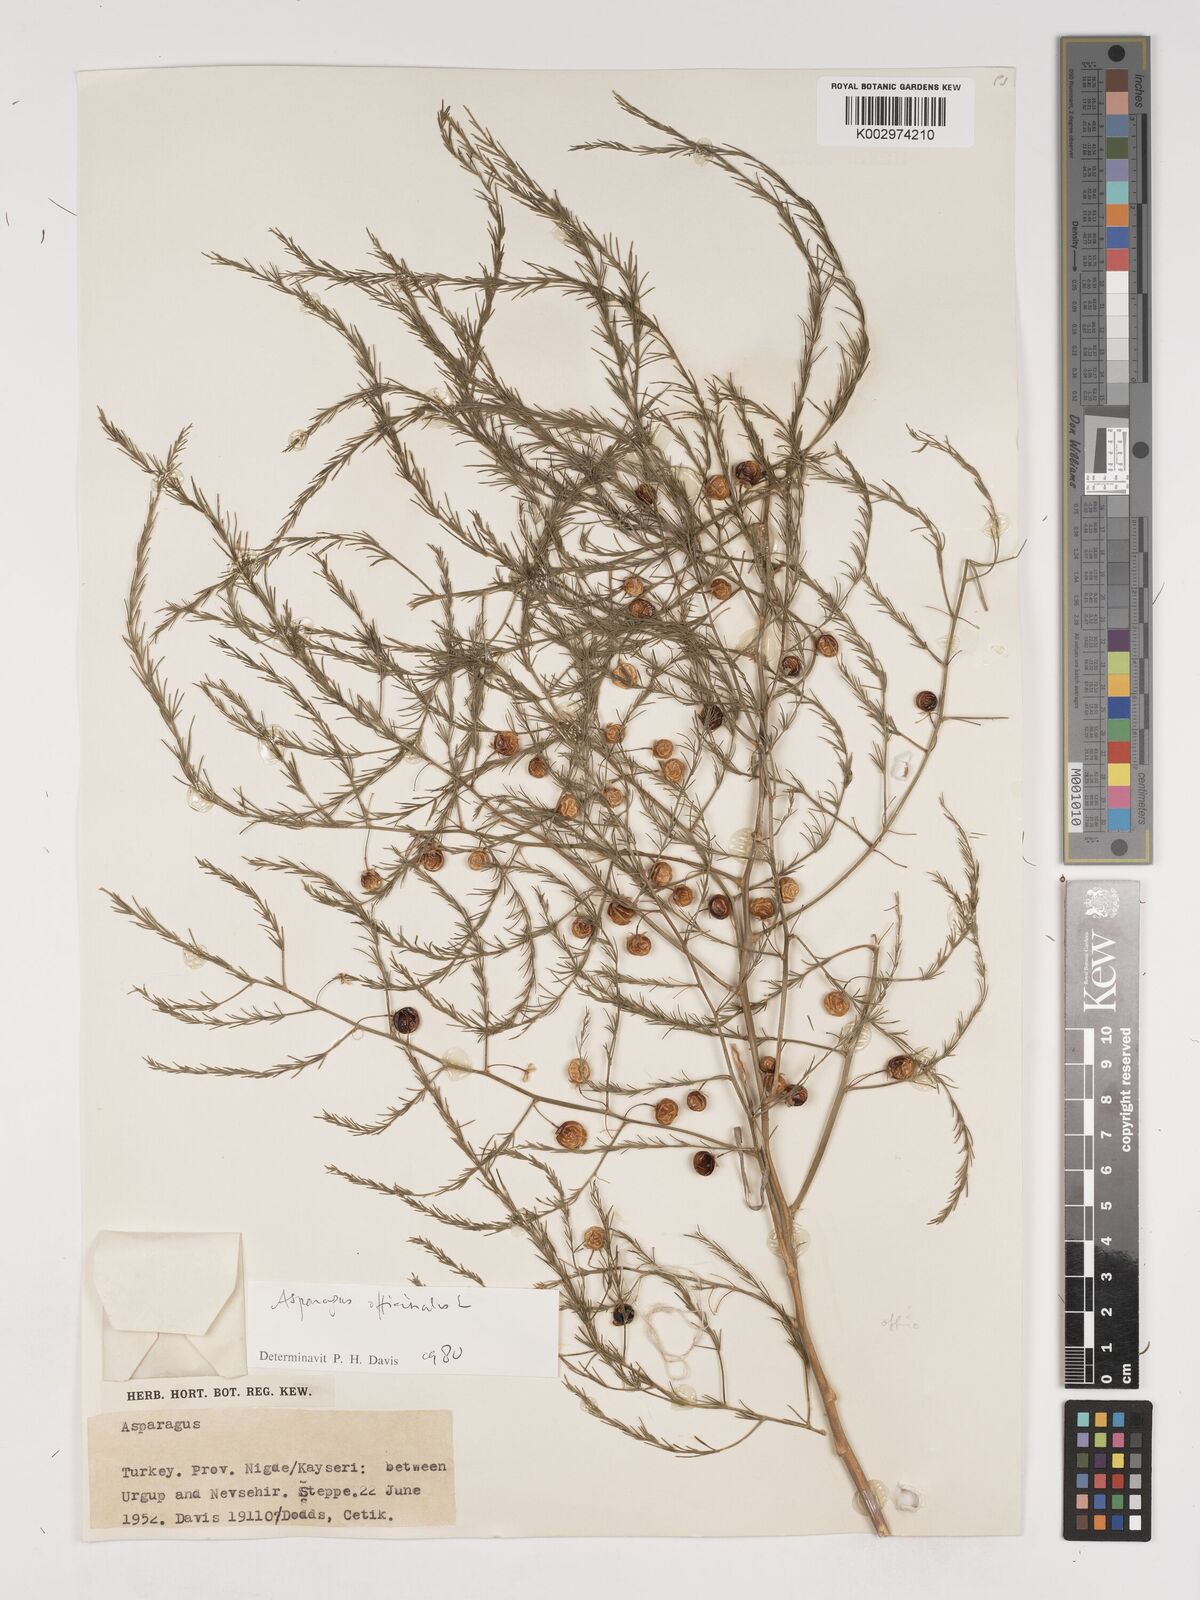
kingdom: Plantae
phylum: Tracheophyta
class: Liliopsida
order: Asparagales
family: Asparagaceae
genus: Asparagus
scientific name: Asparagus officinalis
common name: Garden asparagus
